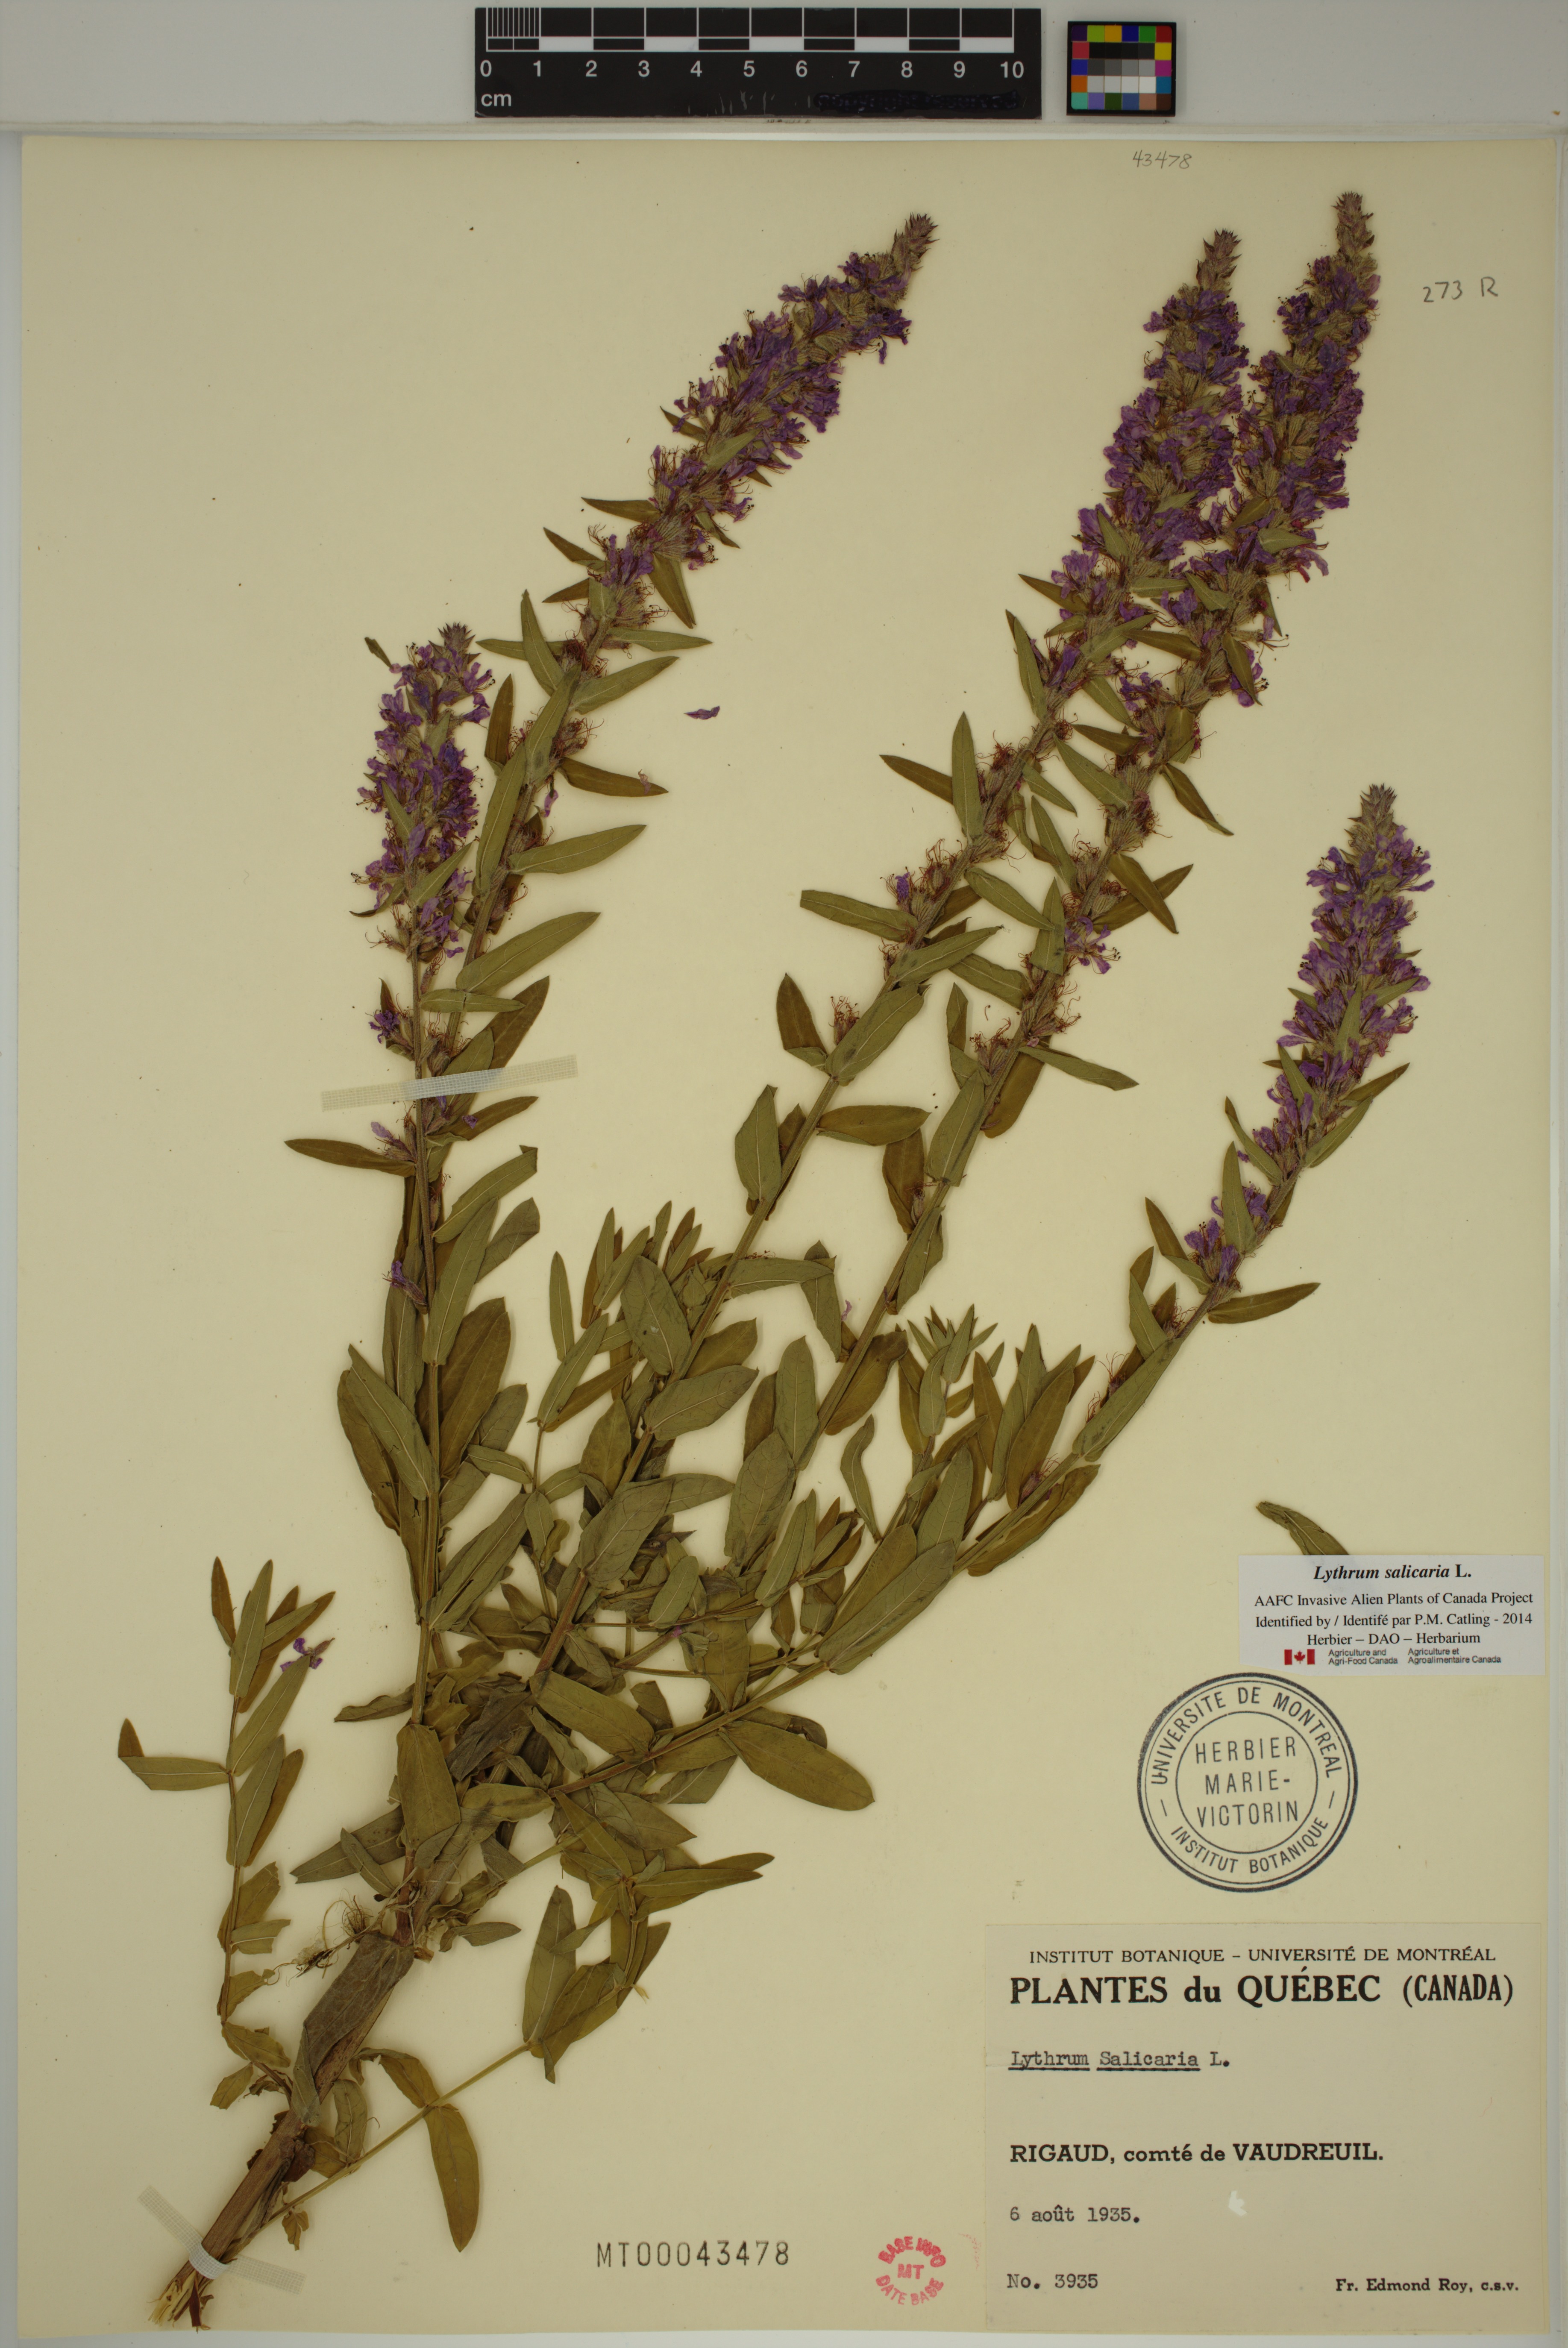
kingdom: Plantae
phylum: Tracheophyta
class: Magnoliopsida
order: Myrtales
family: Lythraceae
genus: Lythrum
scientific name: Lythrum salicaria
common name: Purple loosestrife
